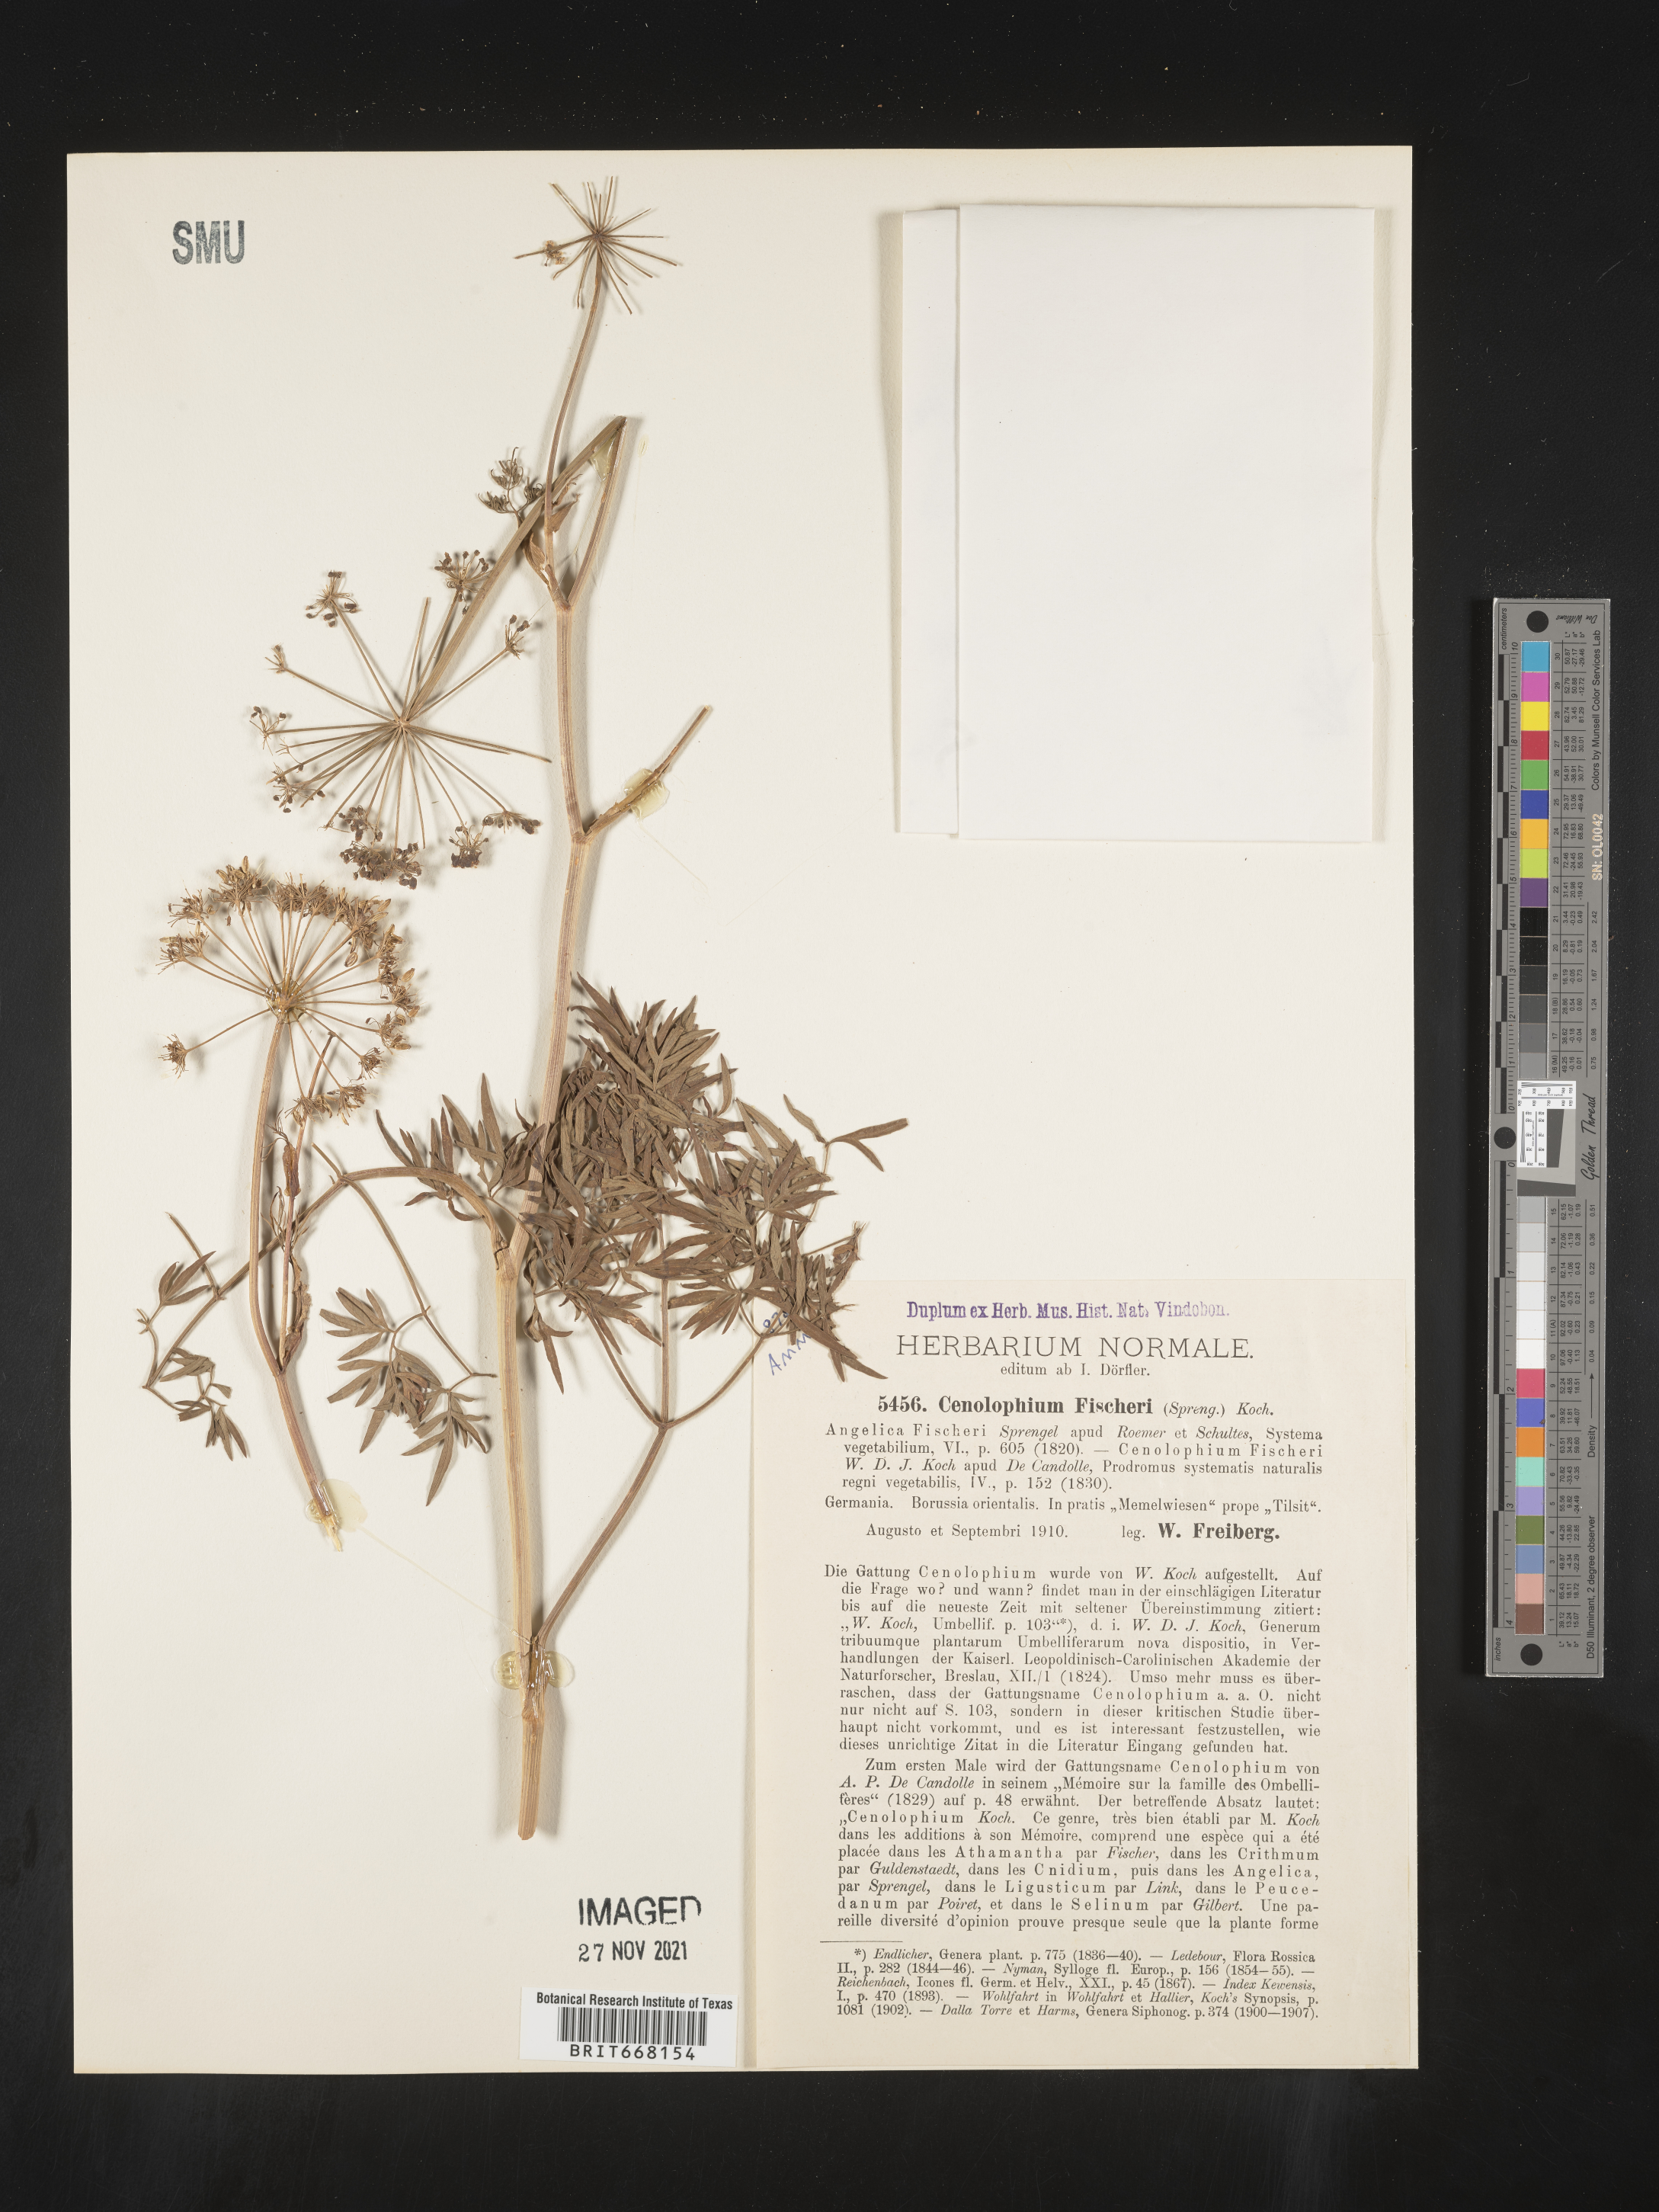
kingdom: Plantae
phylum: Tracheophyta
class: Magnoliopsida
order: Apiales
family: Apiaceae
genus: Cenolophium
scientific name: Cenolophium
